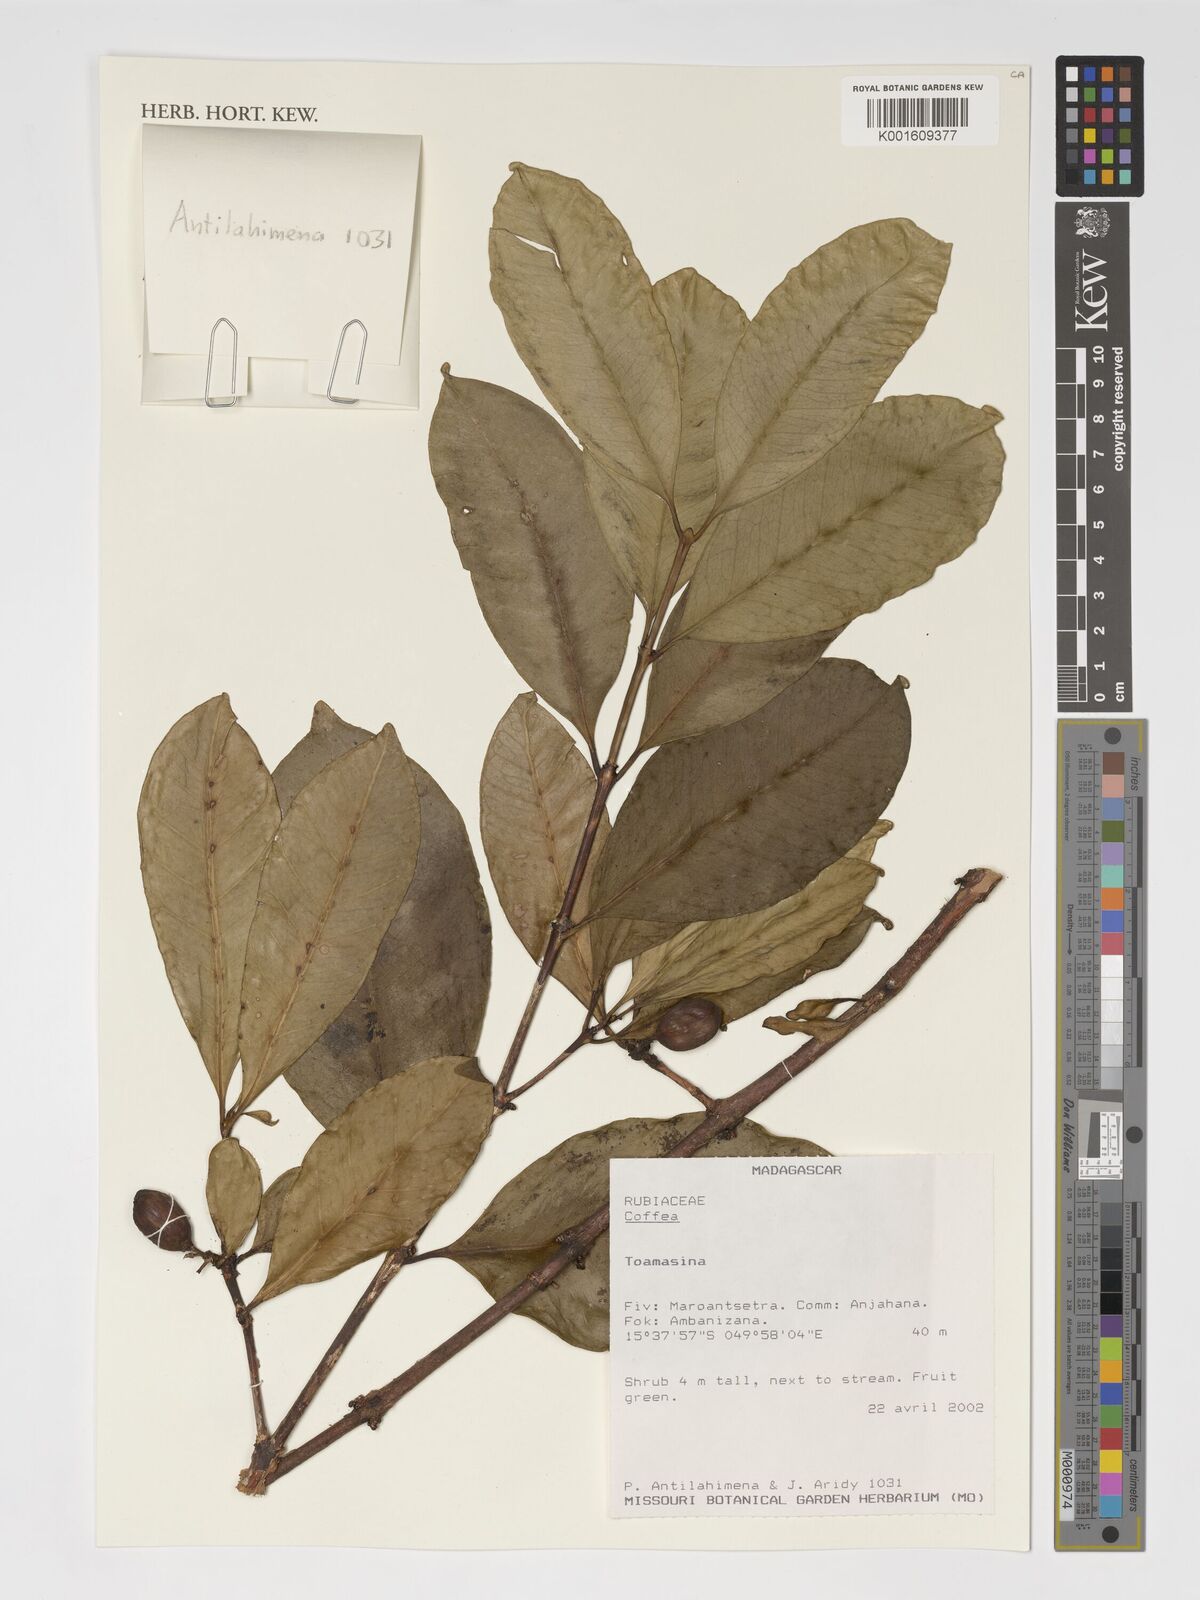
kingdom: Plantae
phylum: Tracheophyta
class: Magnoliopsida
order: Gentianales
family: Rubiaceae
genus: Coffea
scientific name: Coffea
